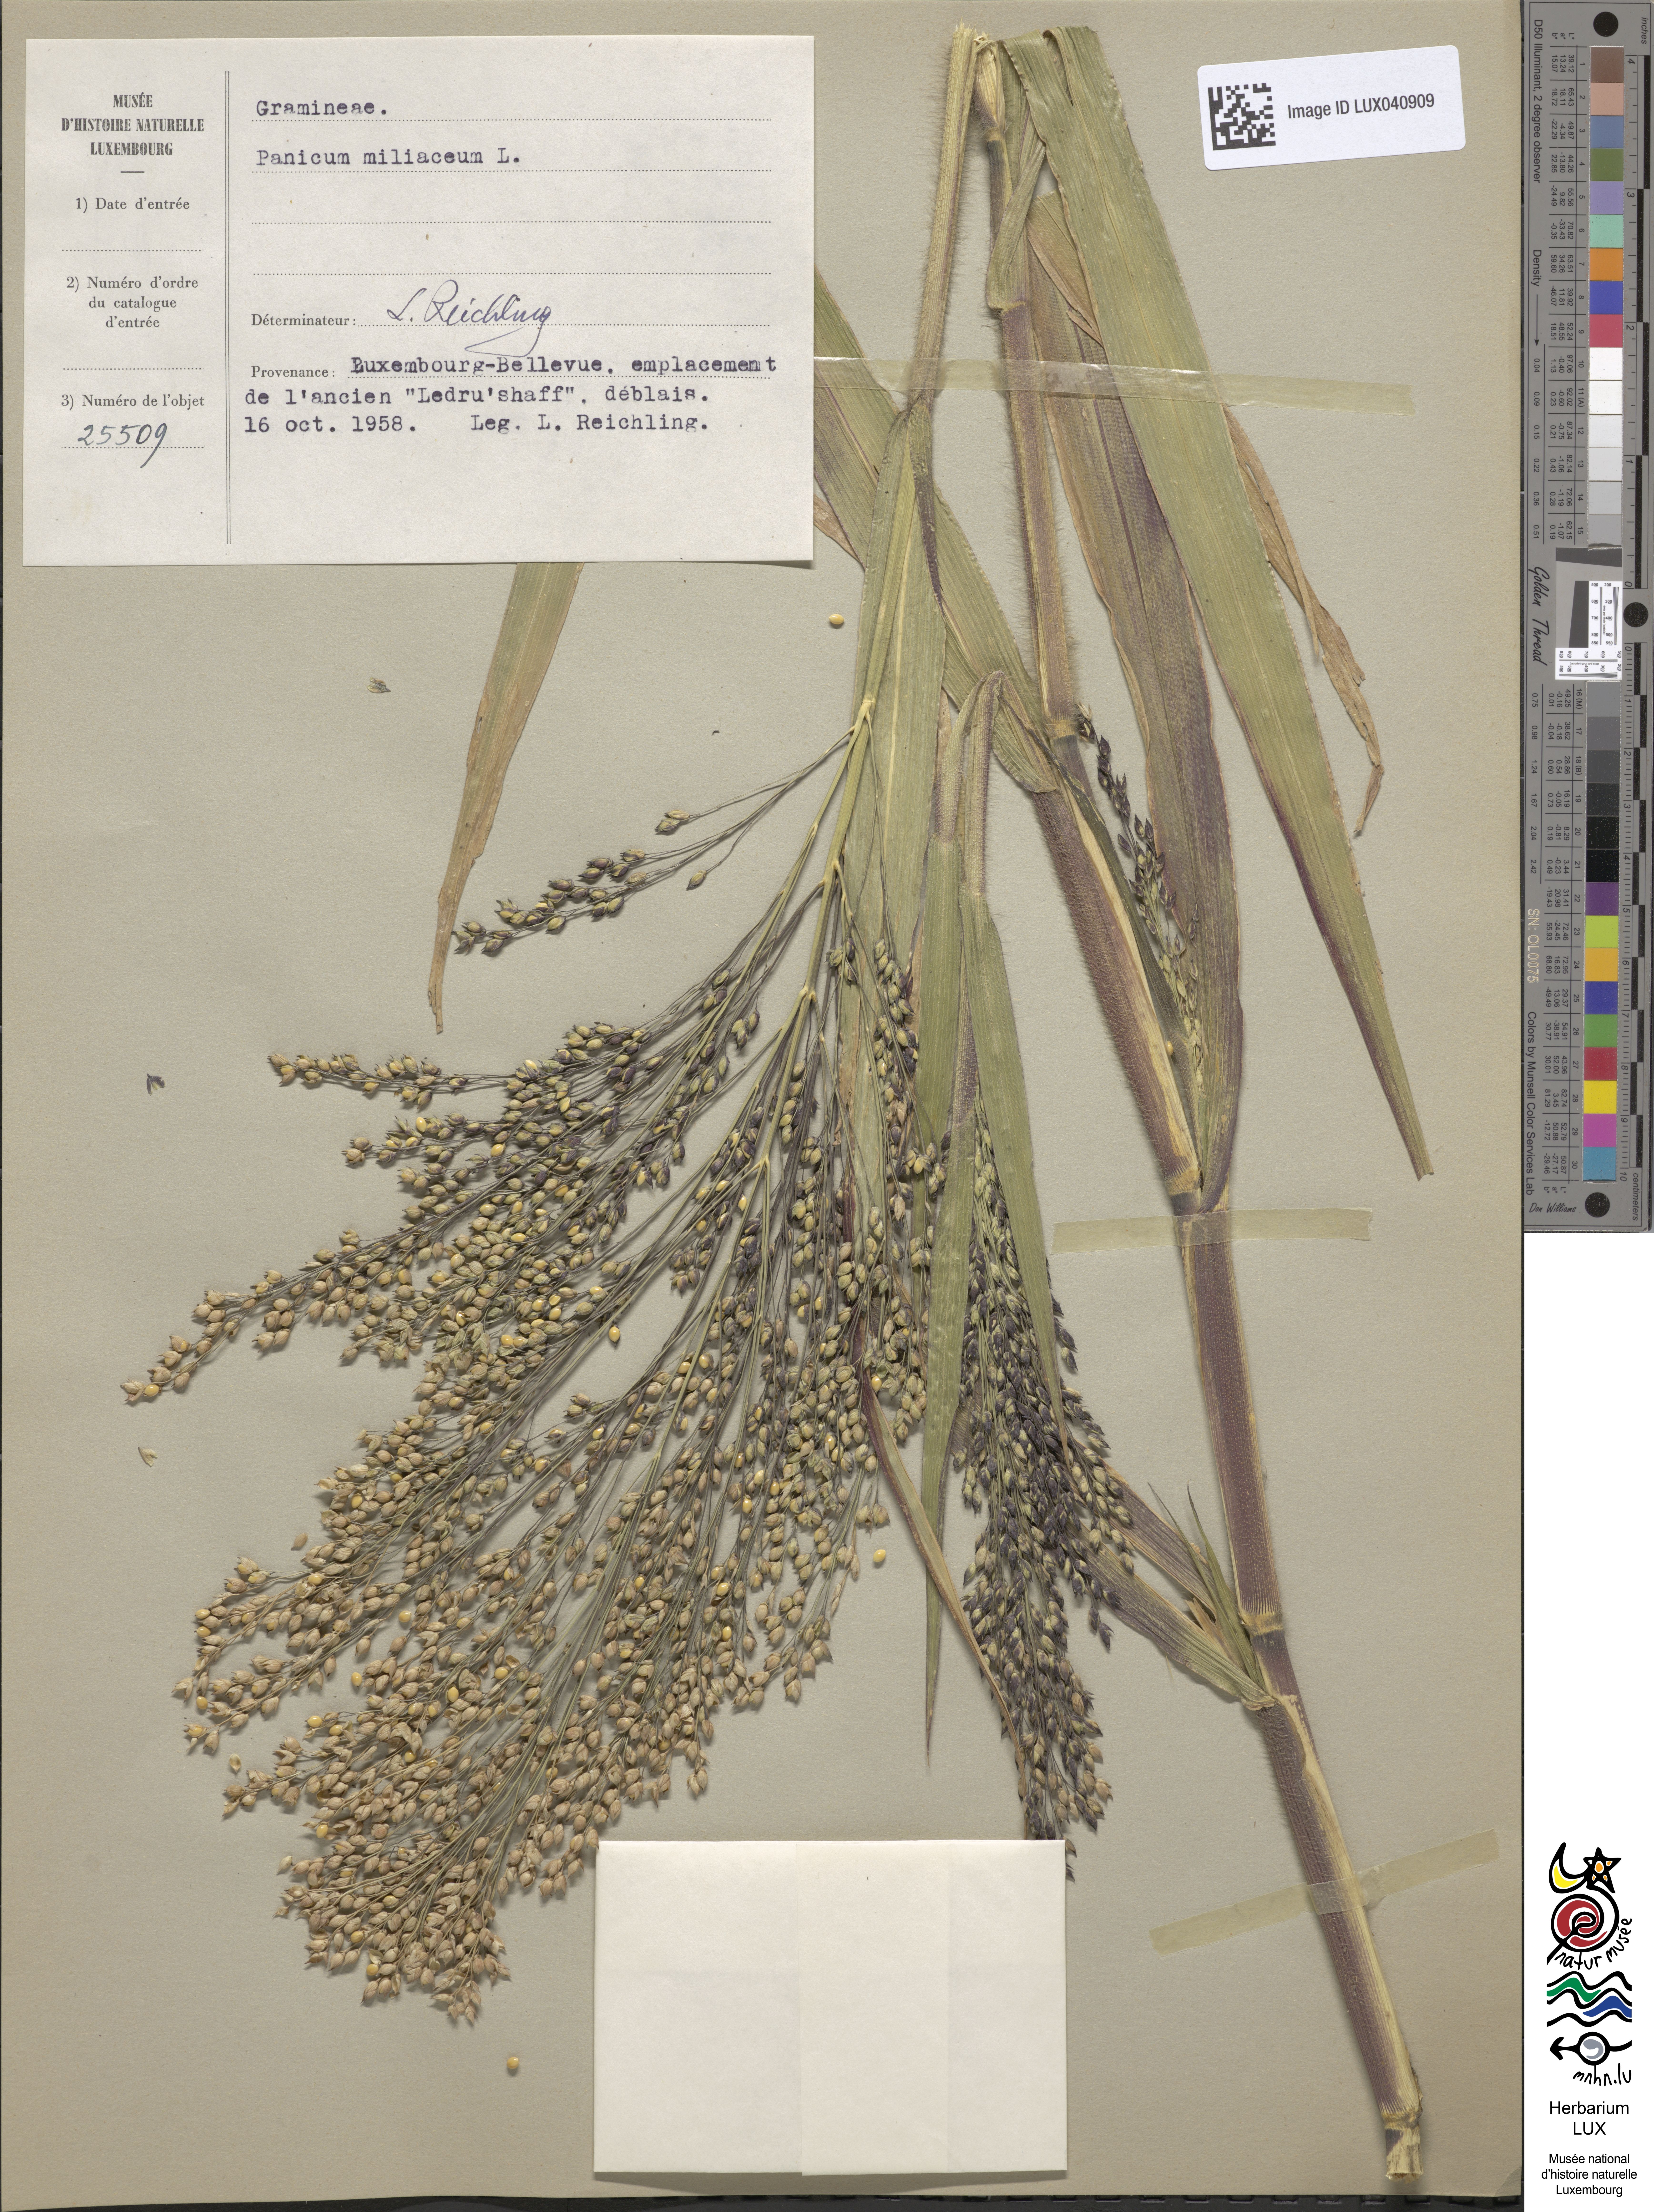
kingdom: Plantae
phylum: Tracheophyta
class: Liliopsida
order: Poales
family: Poaceae
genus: Panicum
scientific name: Panicum miliaceum
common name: Common millet
